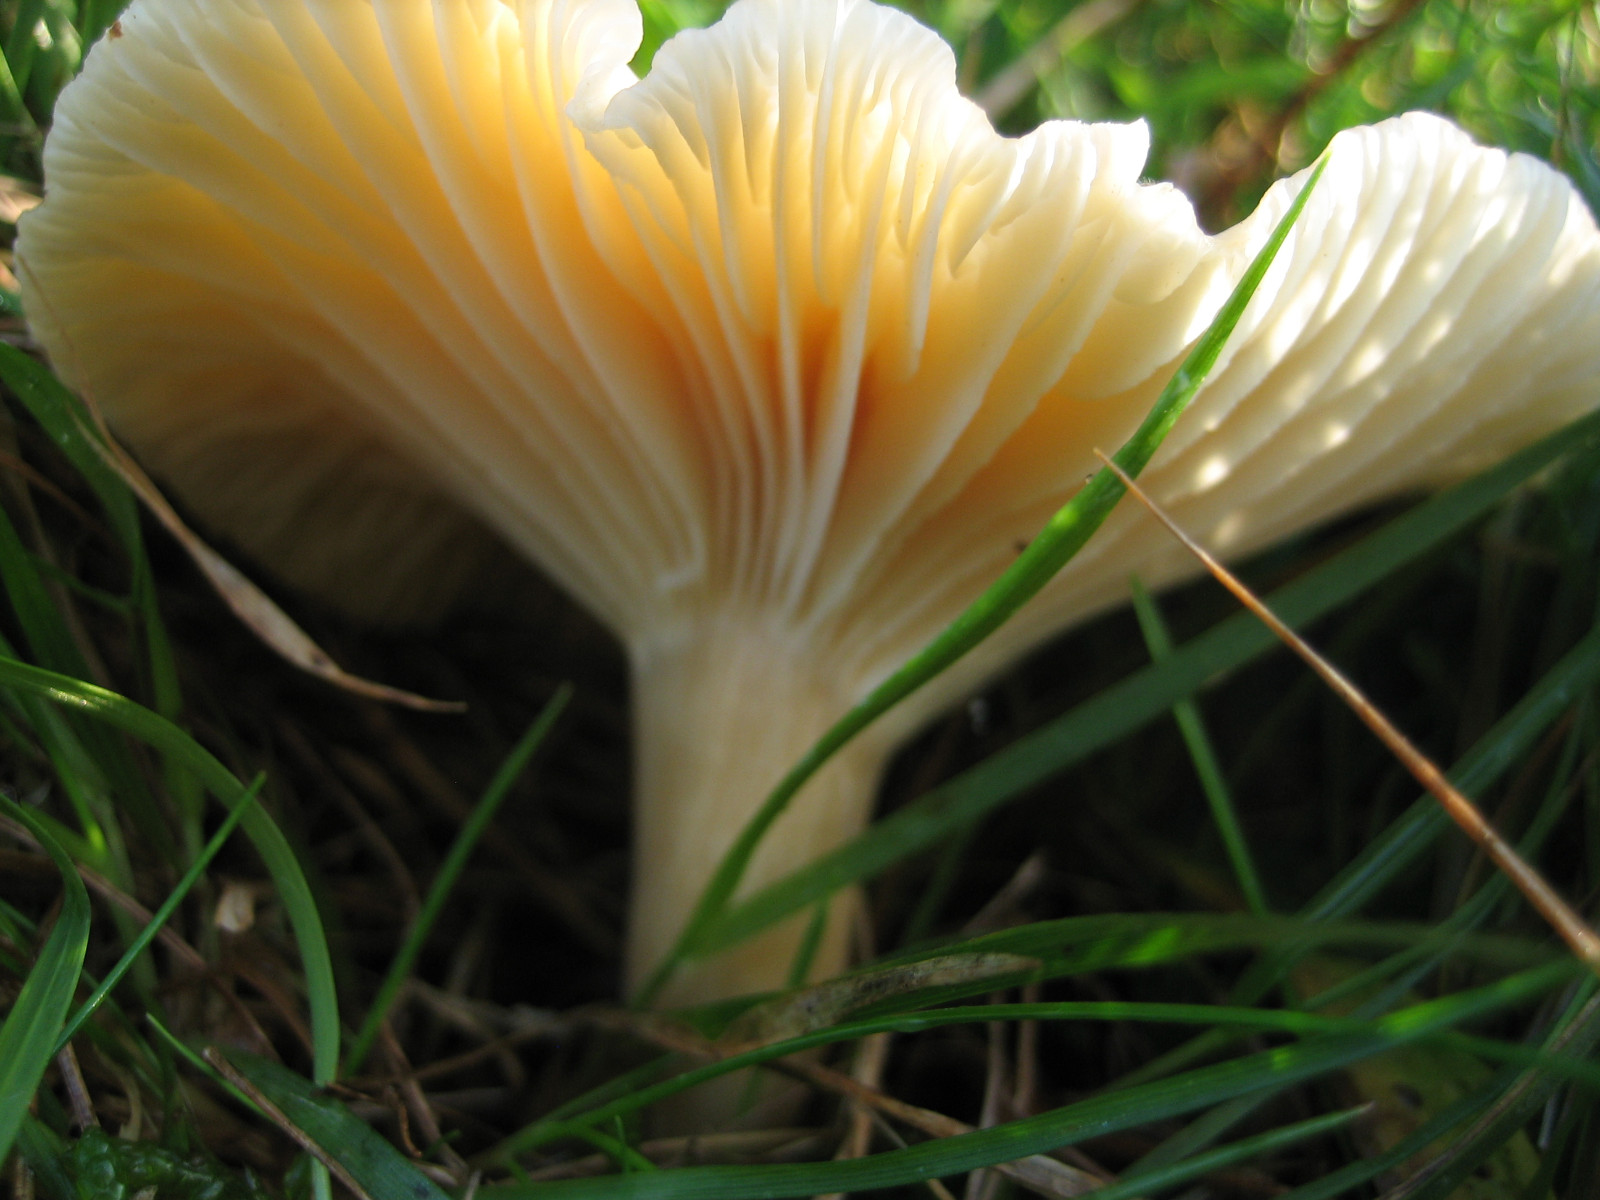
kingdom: Fungi
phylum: Basidiomycota
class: Agaricomycetes
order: Agaricales
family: Hygrophoraceae
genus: Cuphophyllus
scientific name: Cuphophyllus pratensis
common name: eng-vokshat
